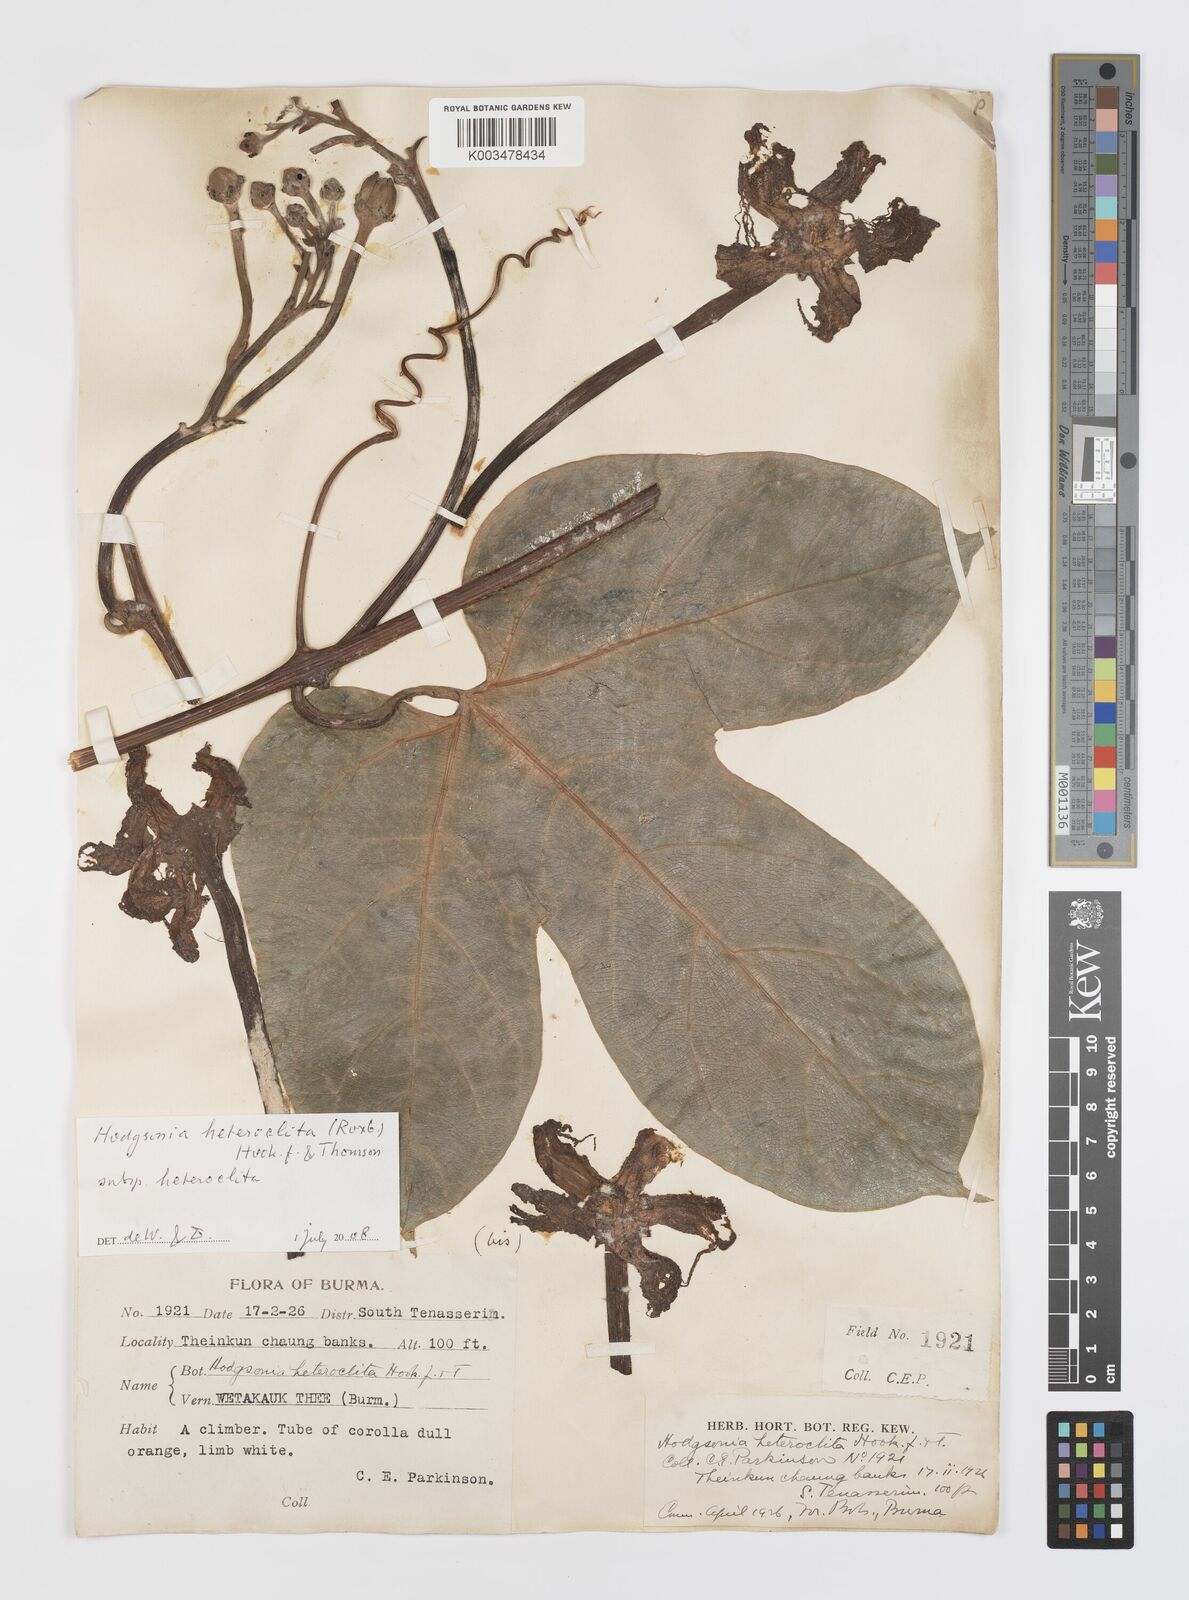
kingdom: Plantae
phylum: Tracheophyta
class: Magnoliopsida
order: Cucurbitales
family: Cucurbitaceae
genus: Hodgsonia
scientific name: Hodgsonia macrocarpa
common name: Chinese lardfruit
